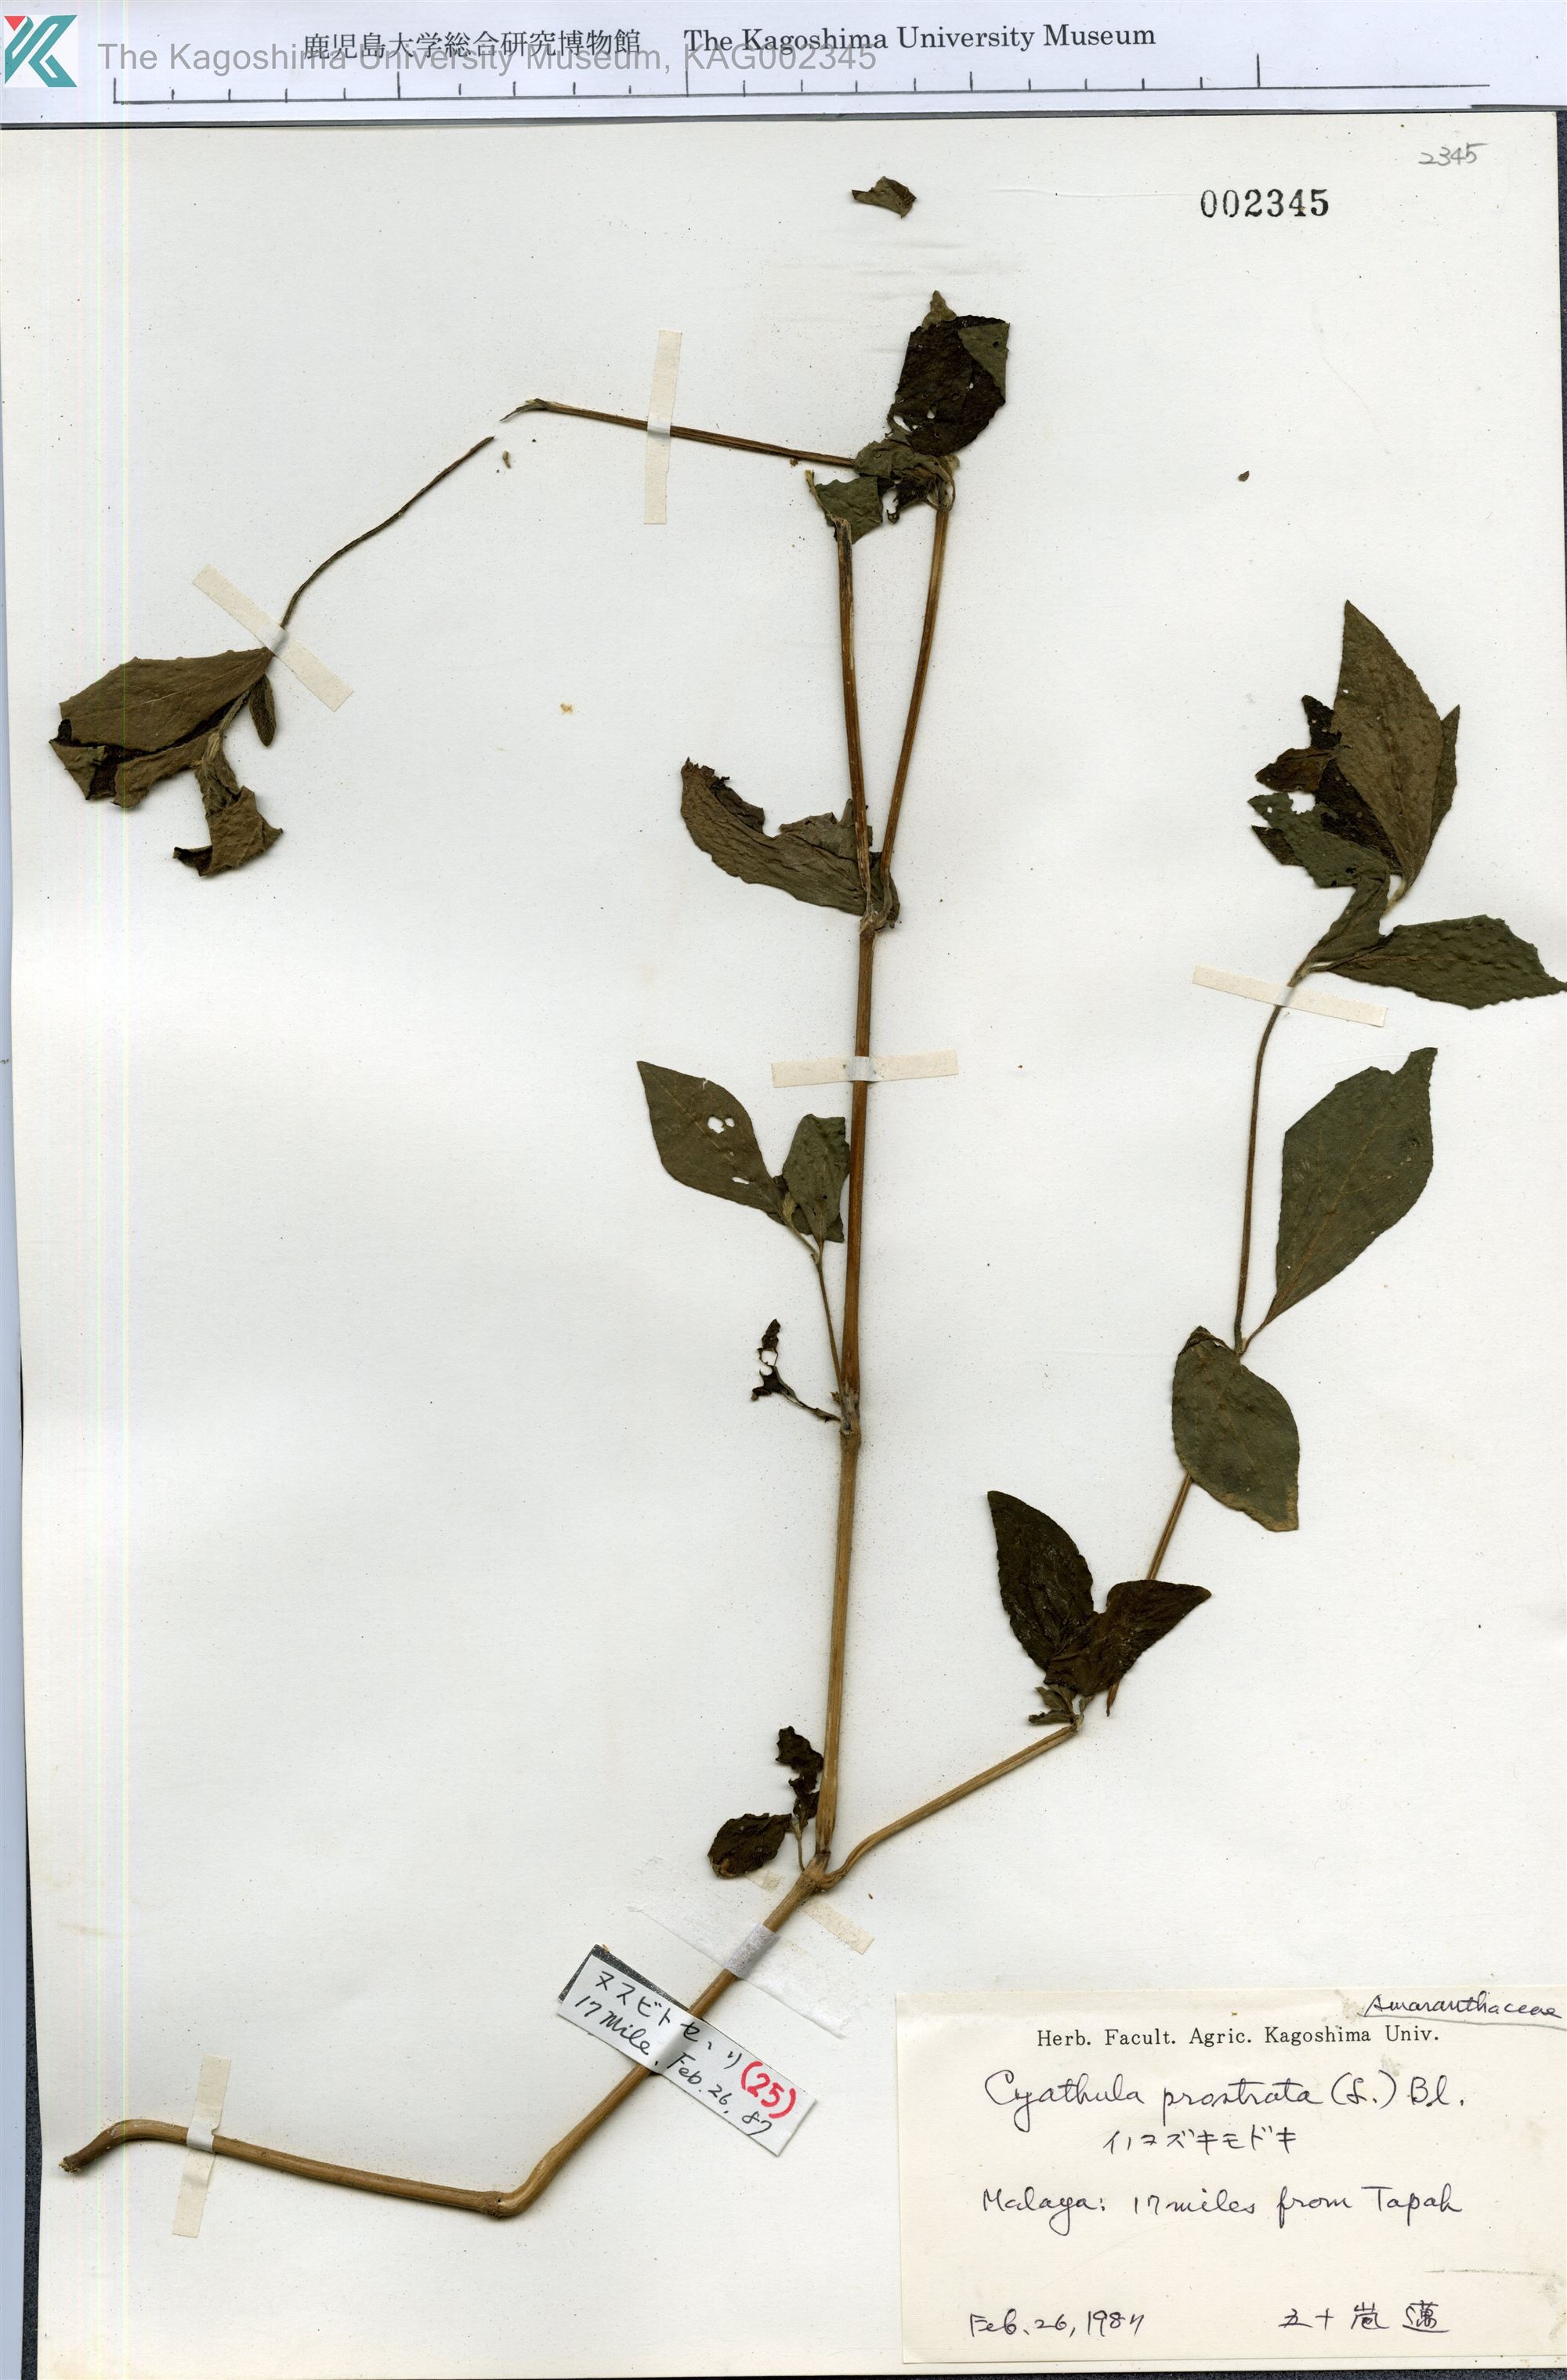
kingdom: Plantae
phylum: Tracheophyta
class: Magnoliopsida
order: Caryophyllales
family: Amaranthaceae
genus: Cyathula
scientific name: Cyathula prostrata
